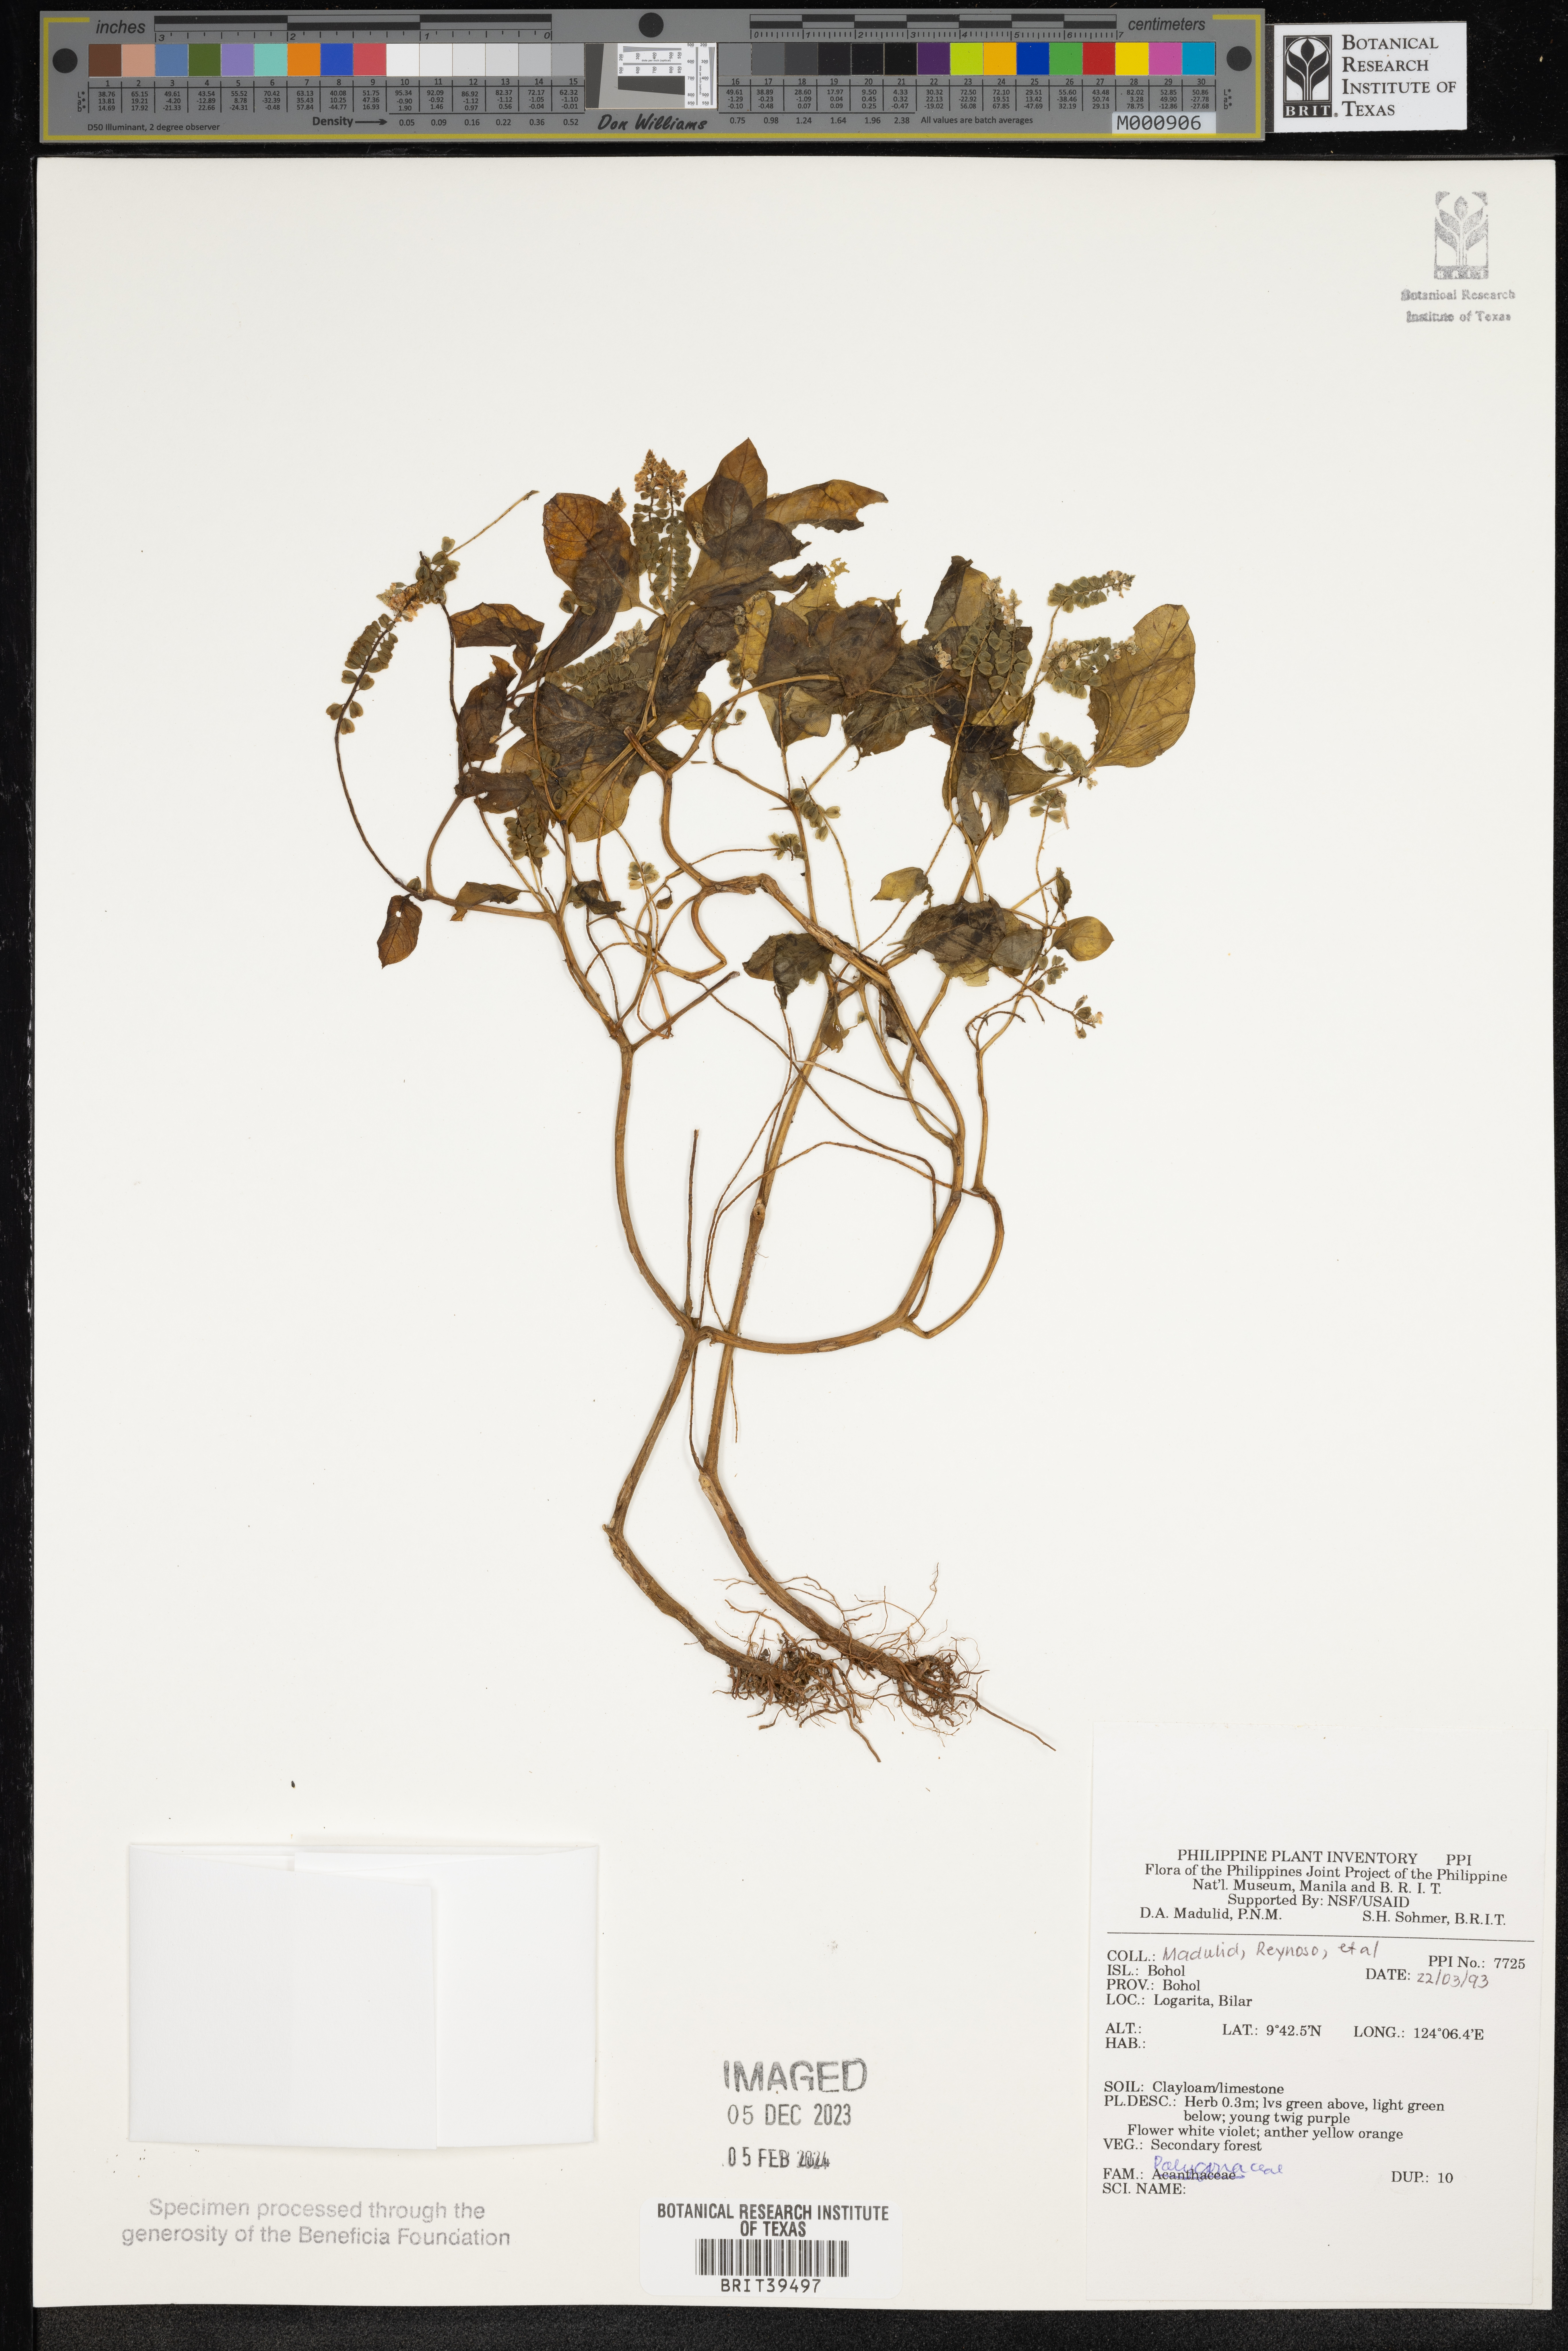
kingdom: Plantae
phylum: Tracheophyta
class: Magnoliopsida
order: Caryophyllales
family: Polygonaceae
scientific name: Polygonaceae
